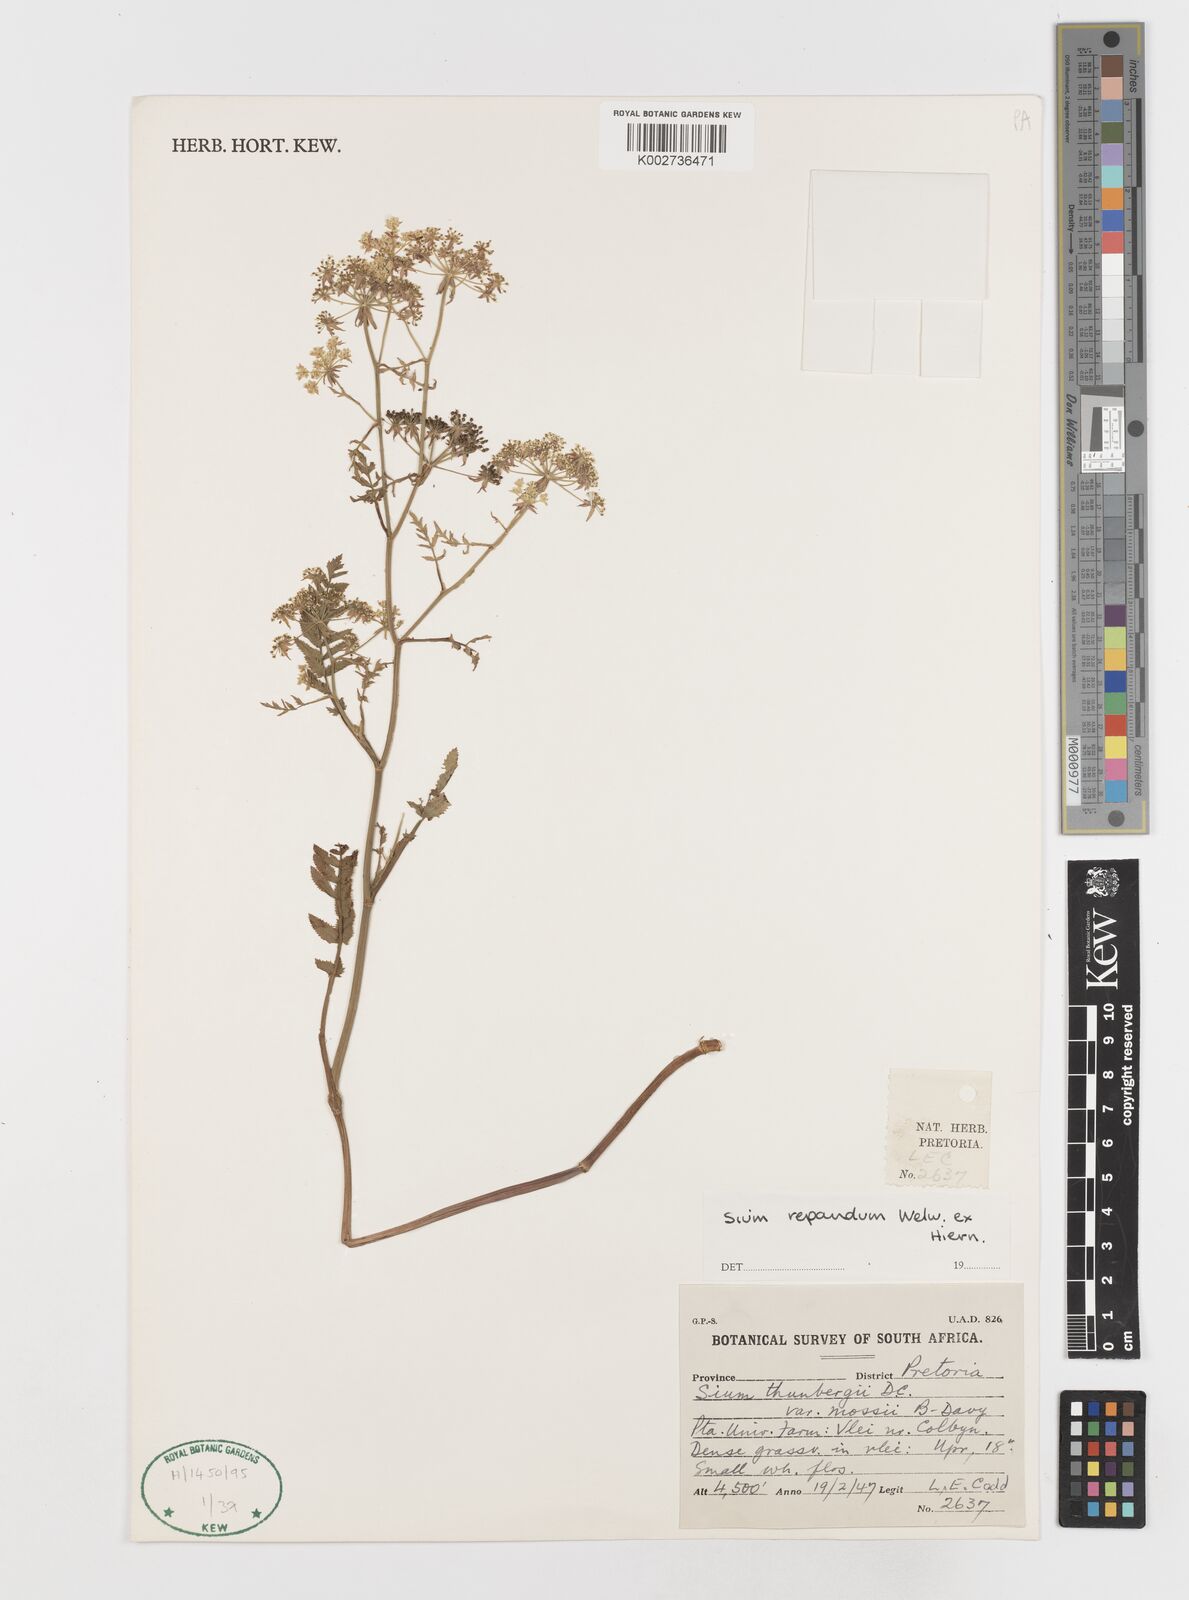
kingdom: Plantae
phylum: Tracheophyta
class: Magnoliopsida
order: Apiales
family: Apiaceae
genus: Berula
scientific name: Berula repanda
